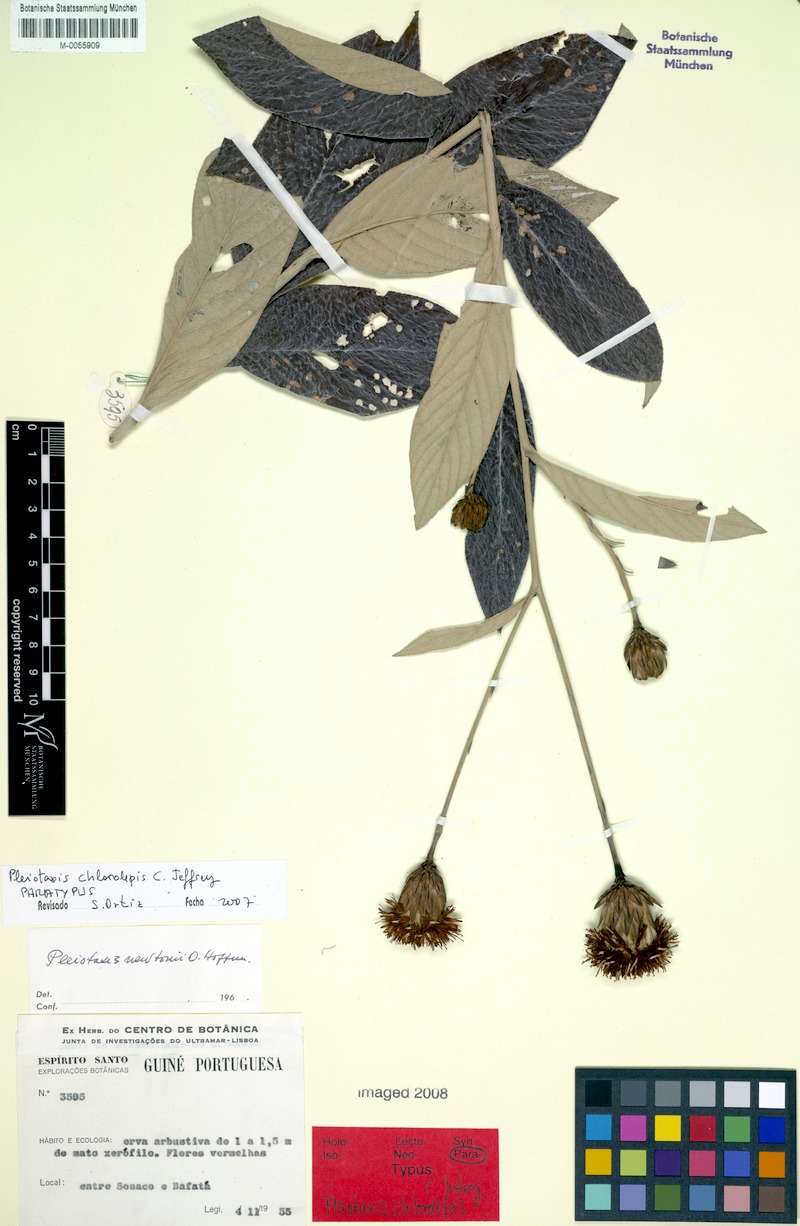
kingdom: Plantae
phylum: Tracheophyta
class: Magnoliopsida
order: Asterales
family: Asteraceae
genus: Pleiotaxis
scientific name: Pleiotaxis chlorolepis
